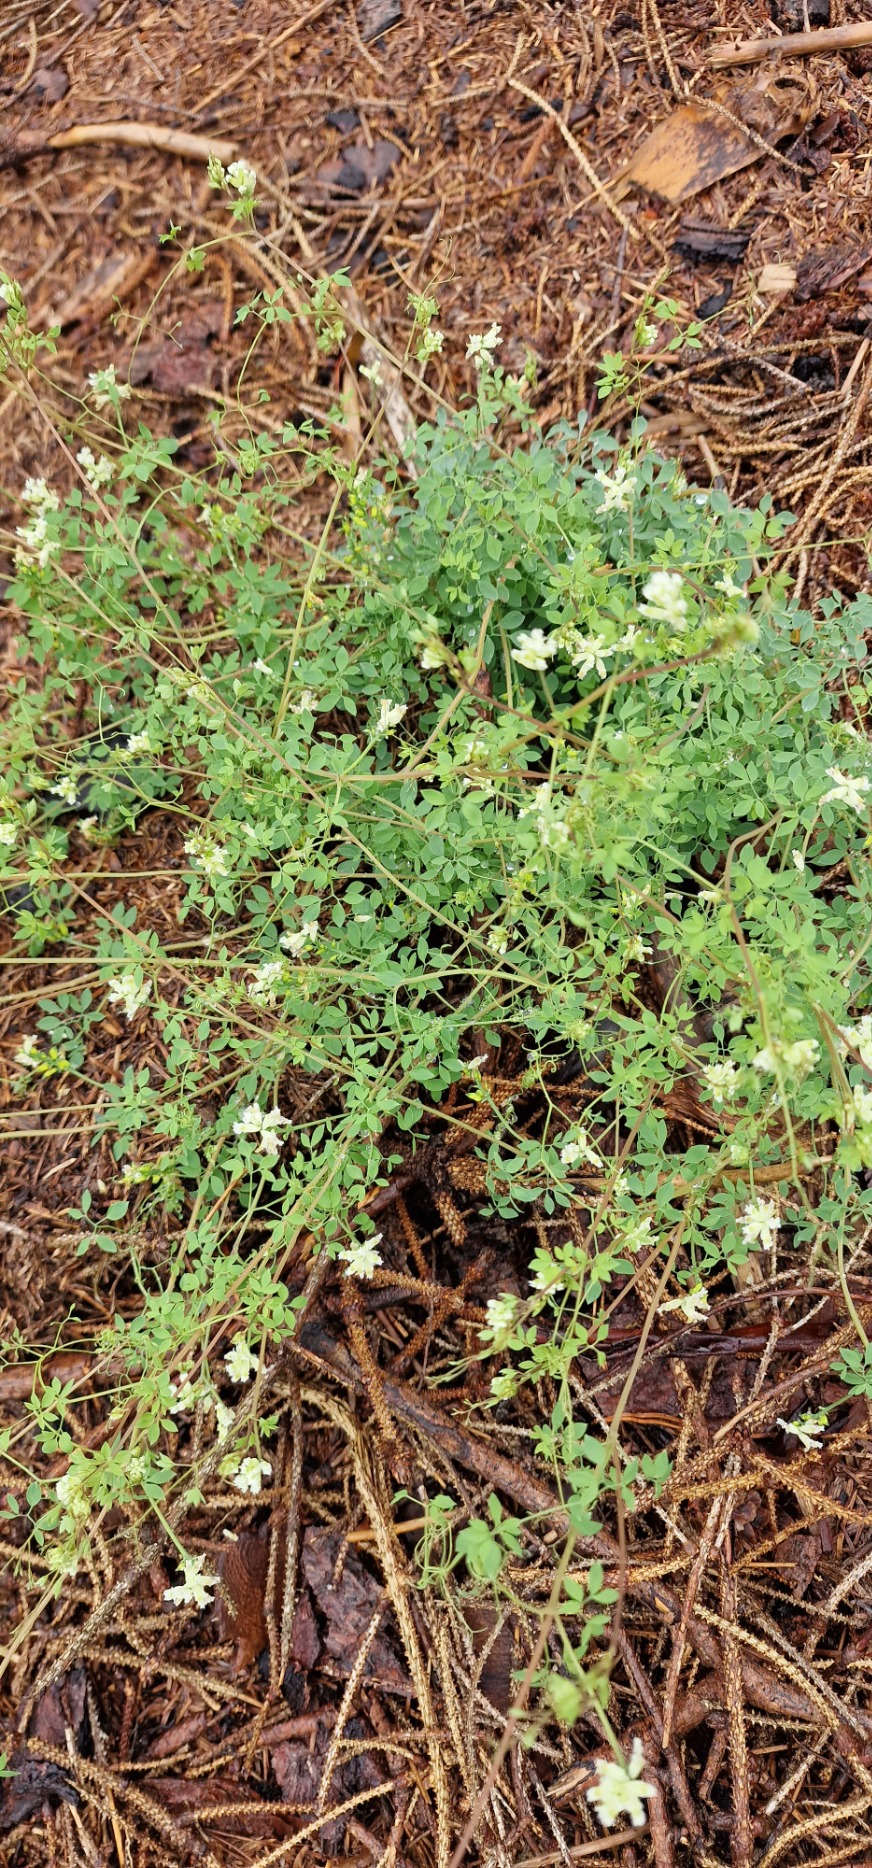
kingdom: Plantae
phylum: Tracheophyta
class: Magnoliopsida
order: Ranunculales
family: Papaveraceae
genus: Ceratocapnos
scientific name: Ceratocapnos claviculata
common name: Klatrende lærkespore
